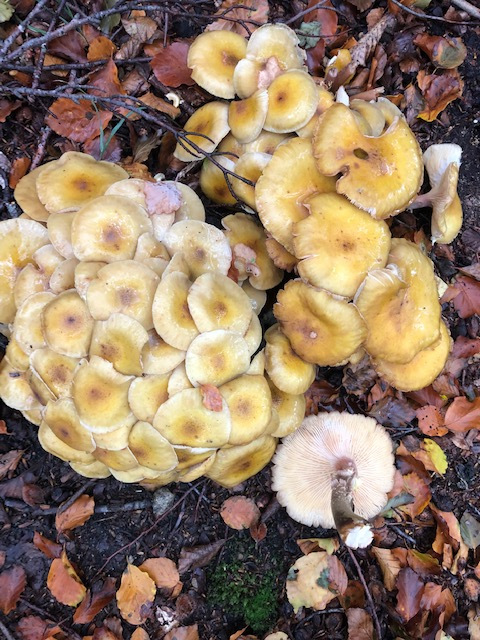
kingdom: Fungi
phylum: Basidiomycota
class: Agaricomycetes
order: Agaricales
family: Physalacriaceae
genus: Armillaria
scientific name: Armillaria mellea
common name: ægte honningsvamp
